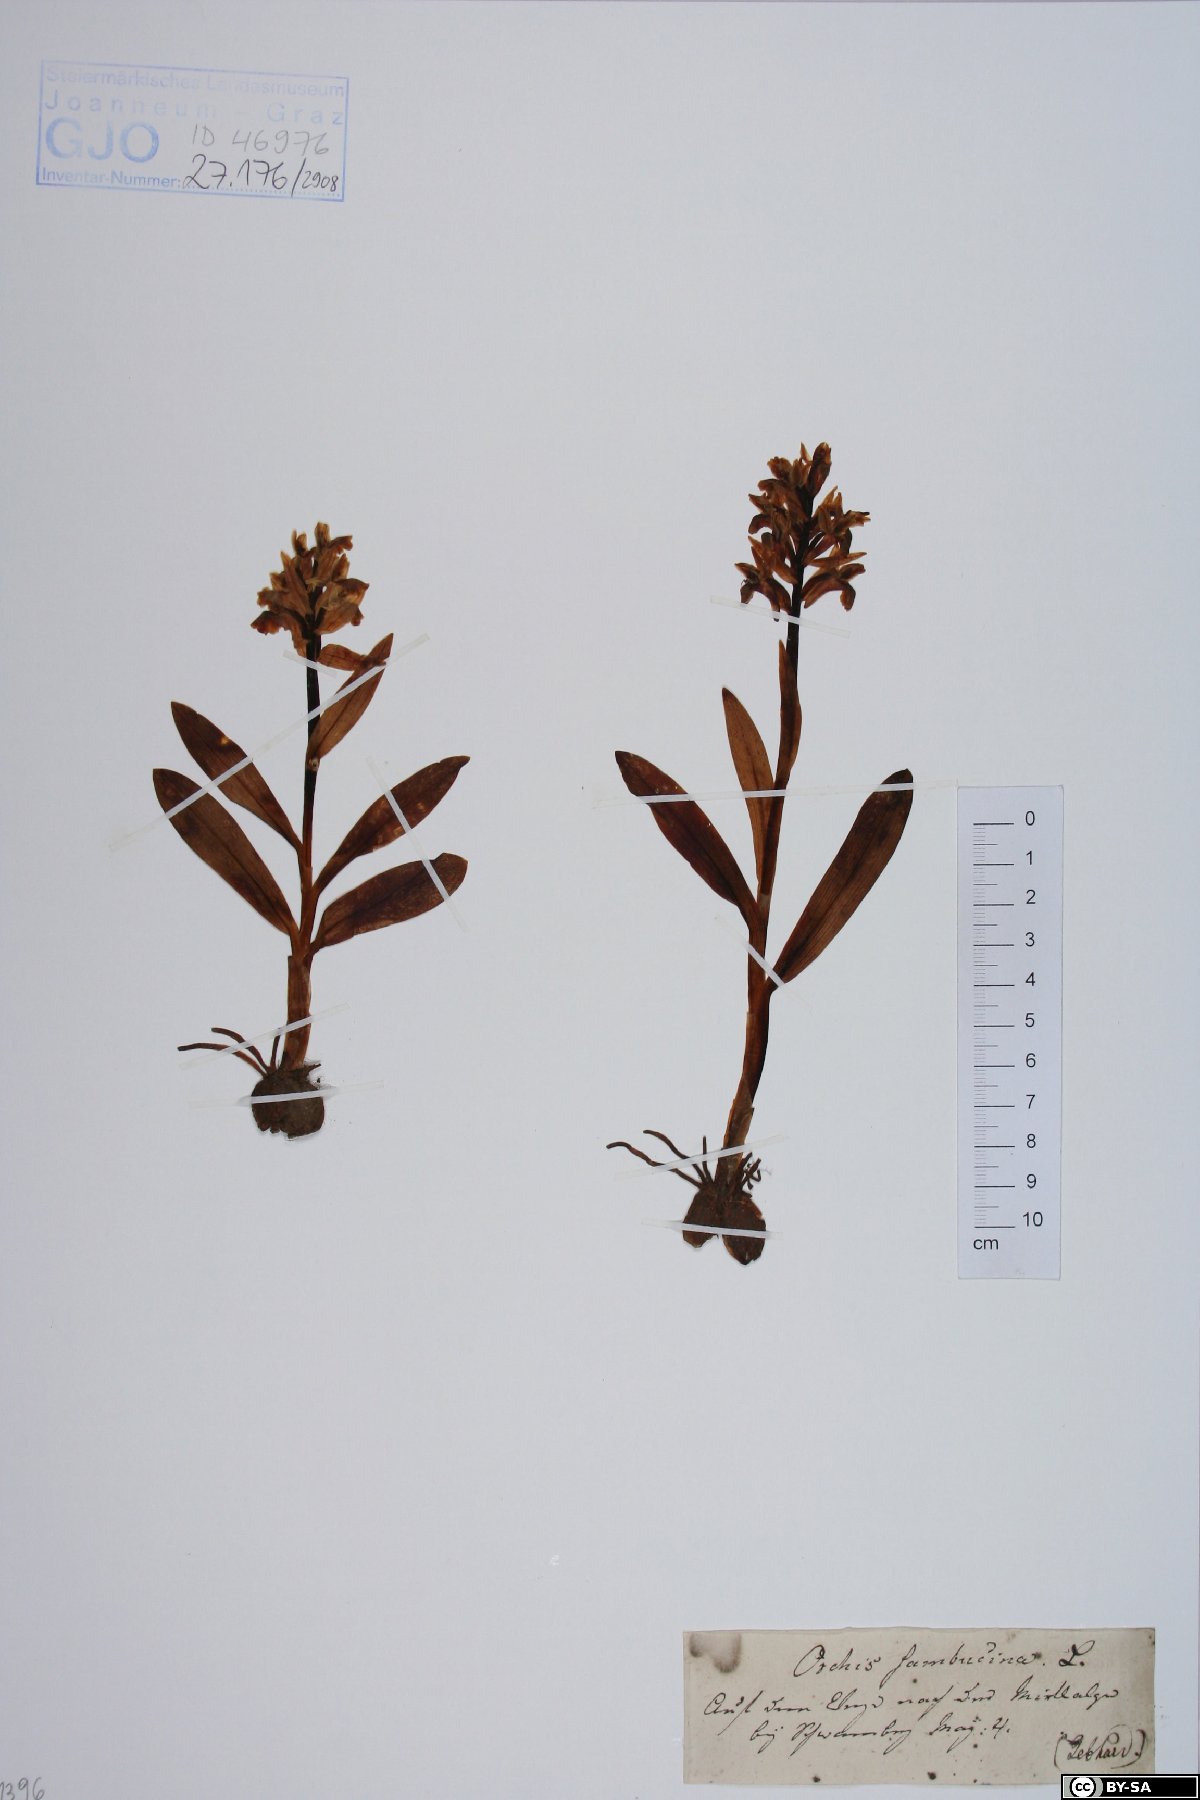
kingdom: Plantae
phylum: Tracheophyta
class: Liliopsida
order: Asparagales
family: Orchidaceae
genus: Dactylorhiza
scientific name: Dactylorhiza sambucina
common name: Elder-flowered orchid
